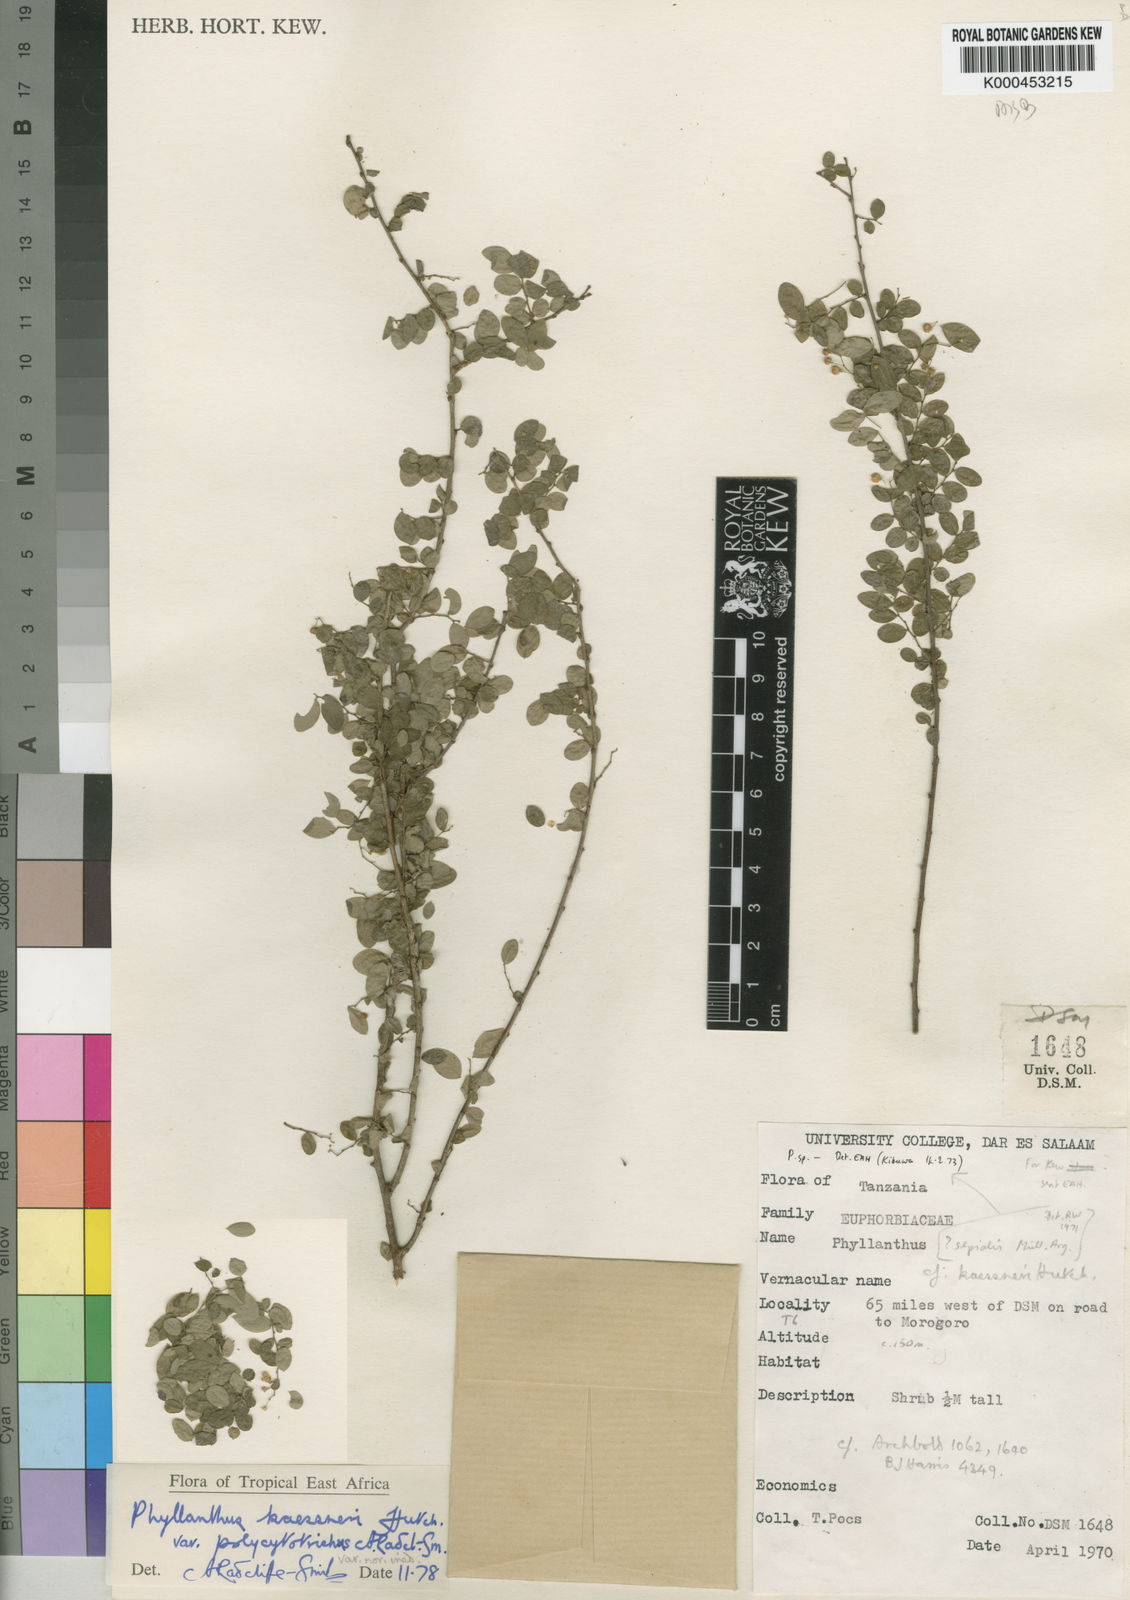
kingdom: Plantae
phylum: Tracheophyta
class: Magnoliopsida
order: Malpighiales
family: Phyllanthaceae
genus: Phyllanthus
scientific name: Phyllanthus kaessneri
